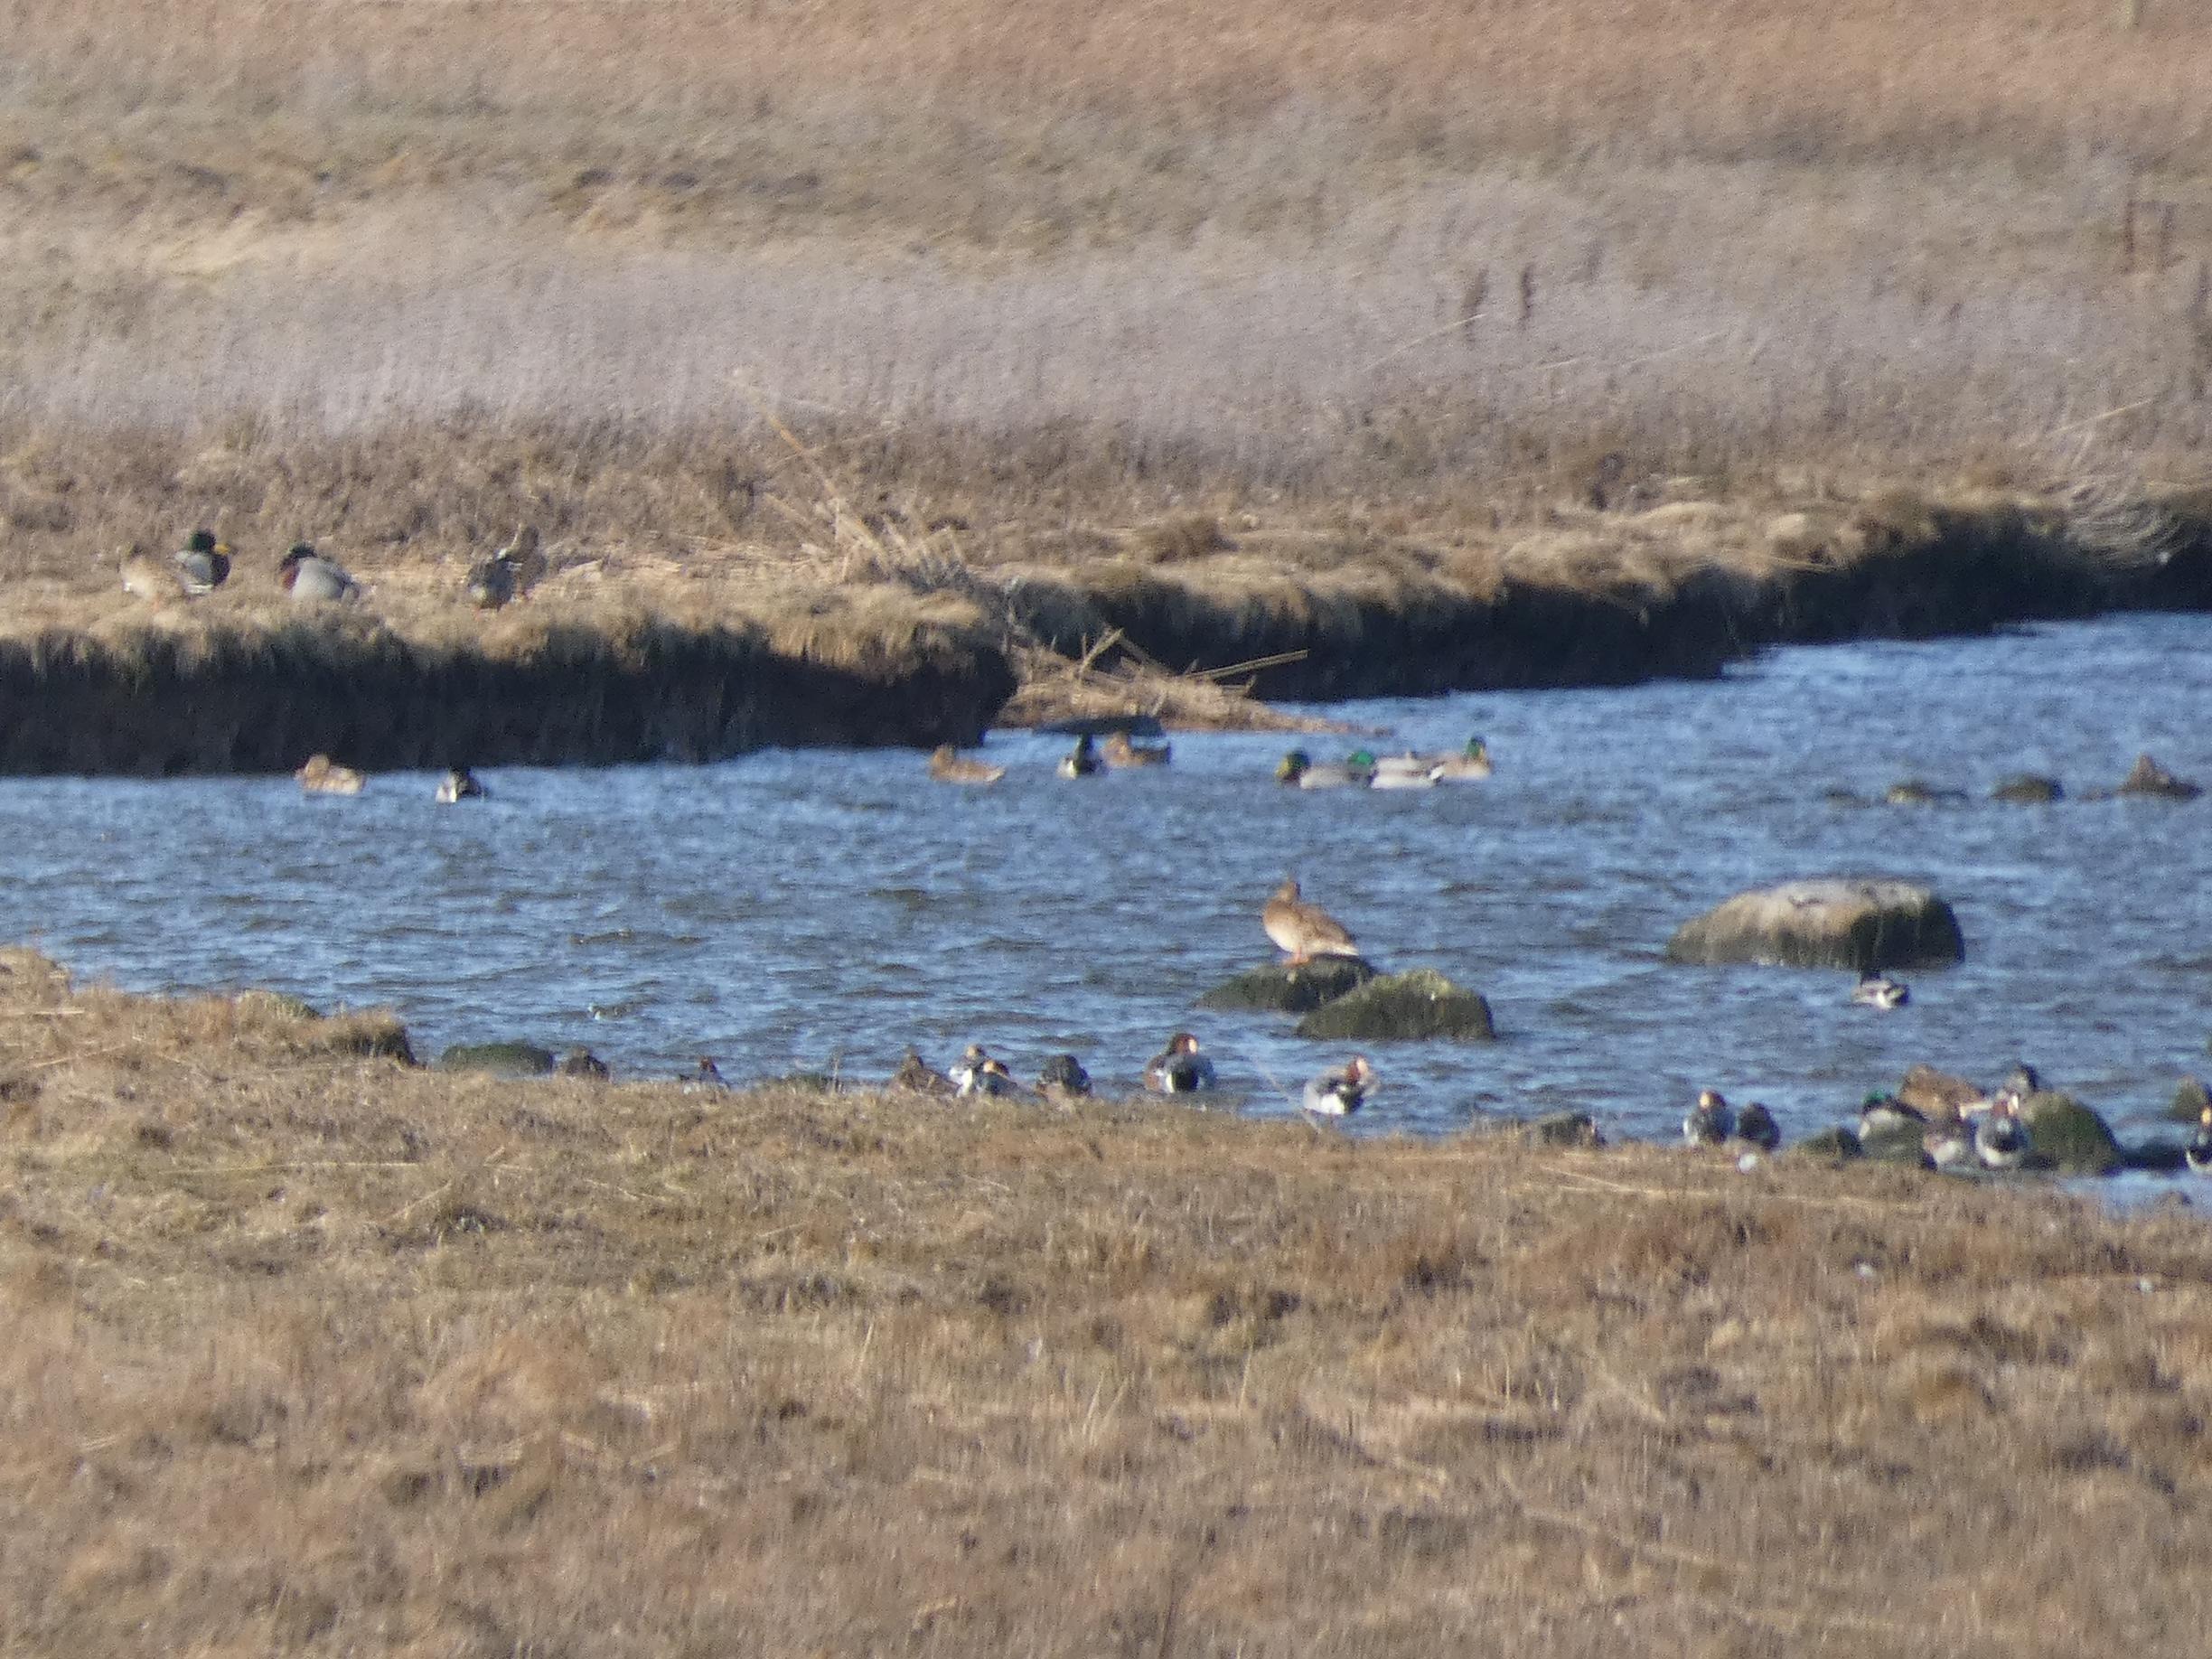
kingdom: Animalia
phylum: Chordata
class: Aves
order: Anseriformes
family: Anatidae
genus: Mareca
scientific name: Mareca penelope
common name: Pibeand
